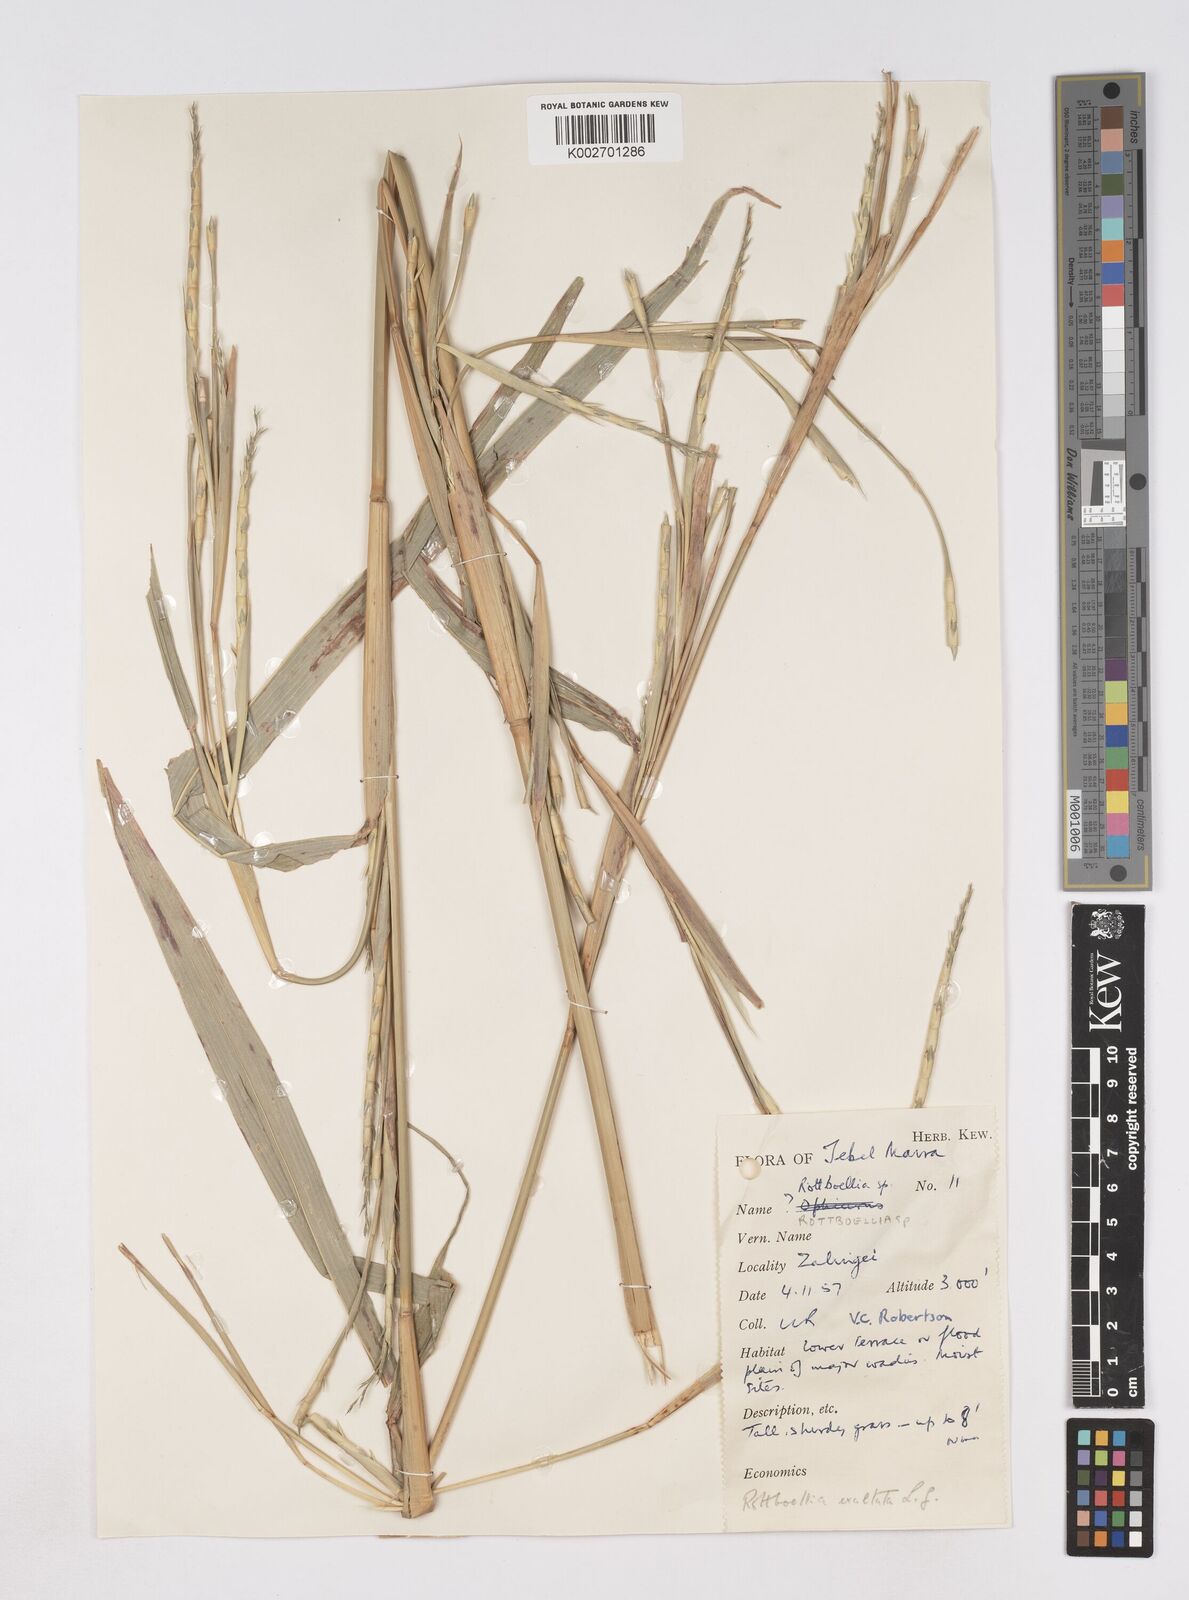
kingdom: Plantae
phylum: Tracheophyta
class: Liliopsida
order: Poales
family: Poaceae
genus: Rottboellia
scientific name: Rottboellia cochinchinensis
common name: Itchgrass
